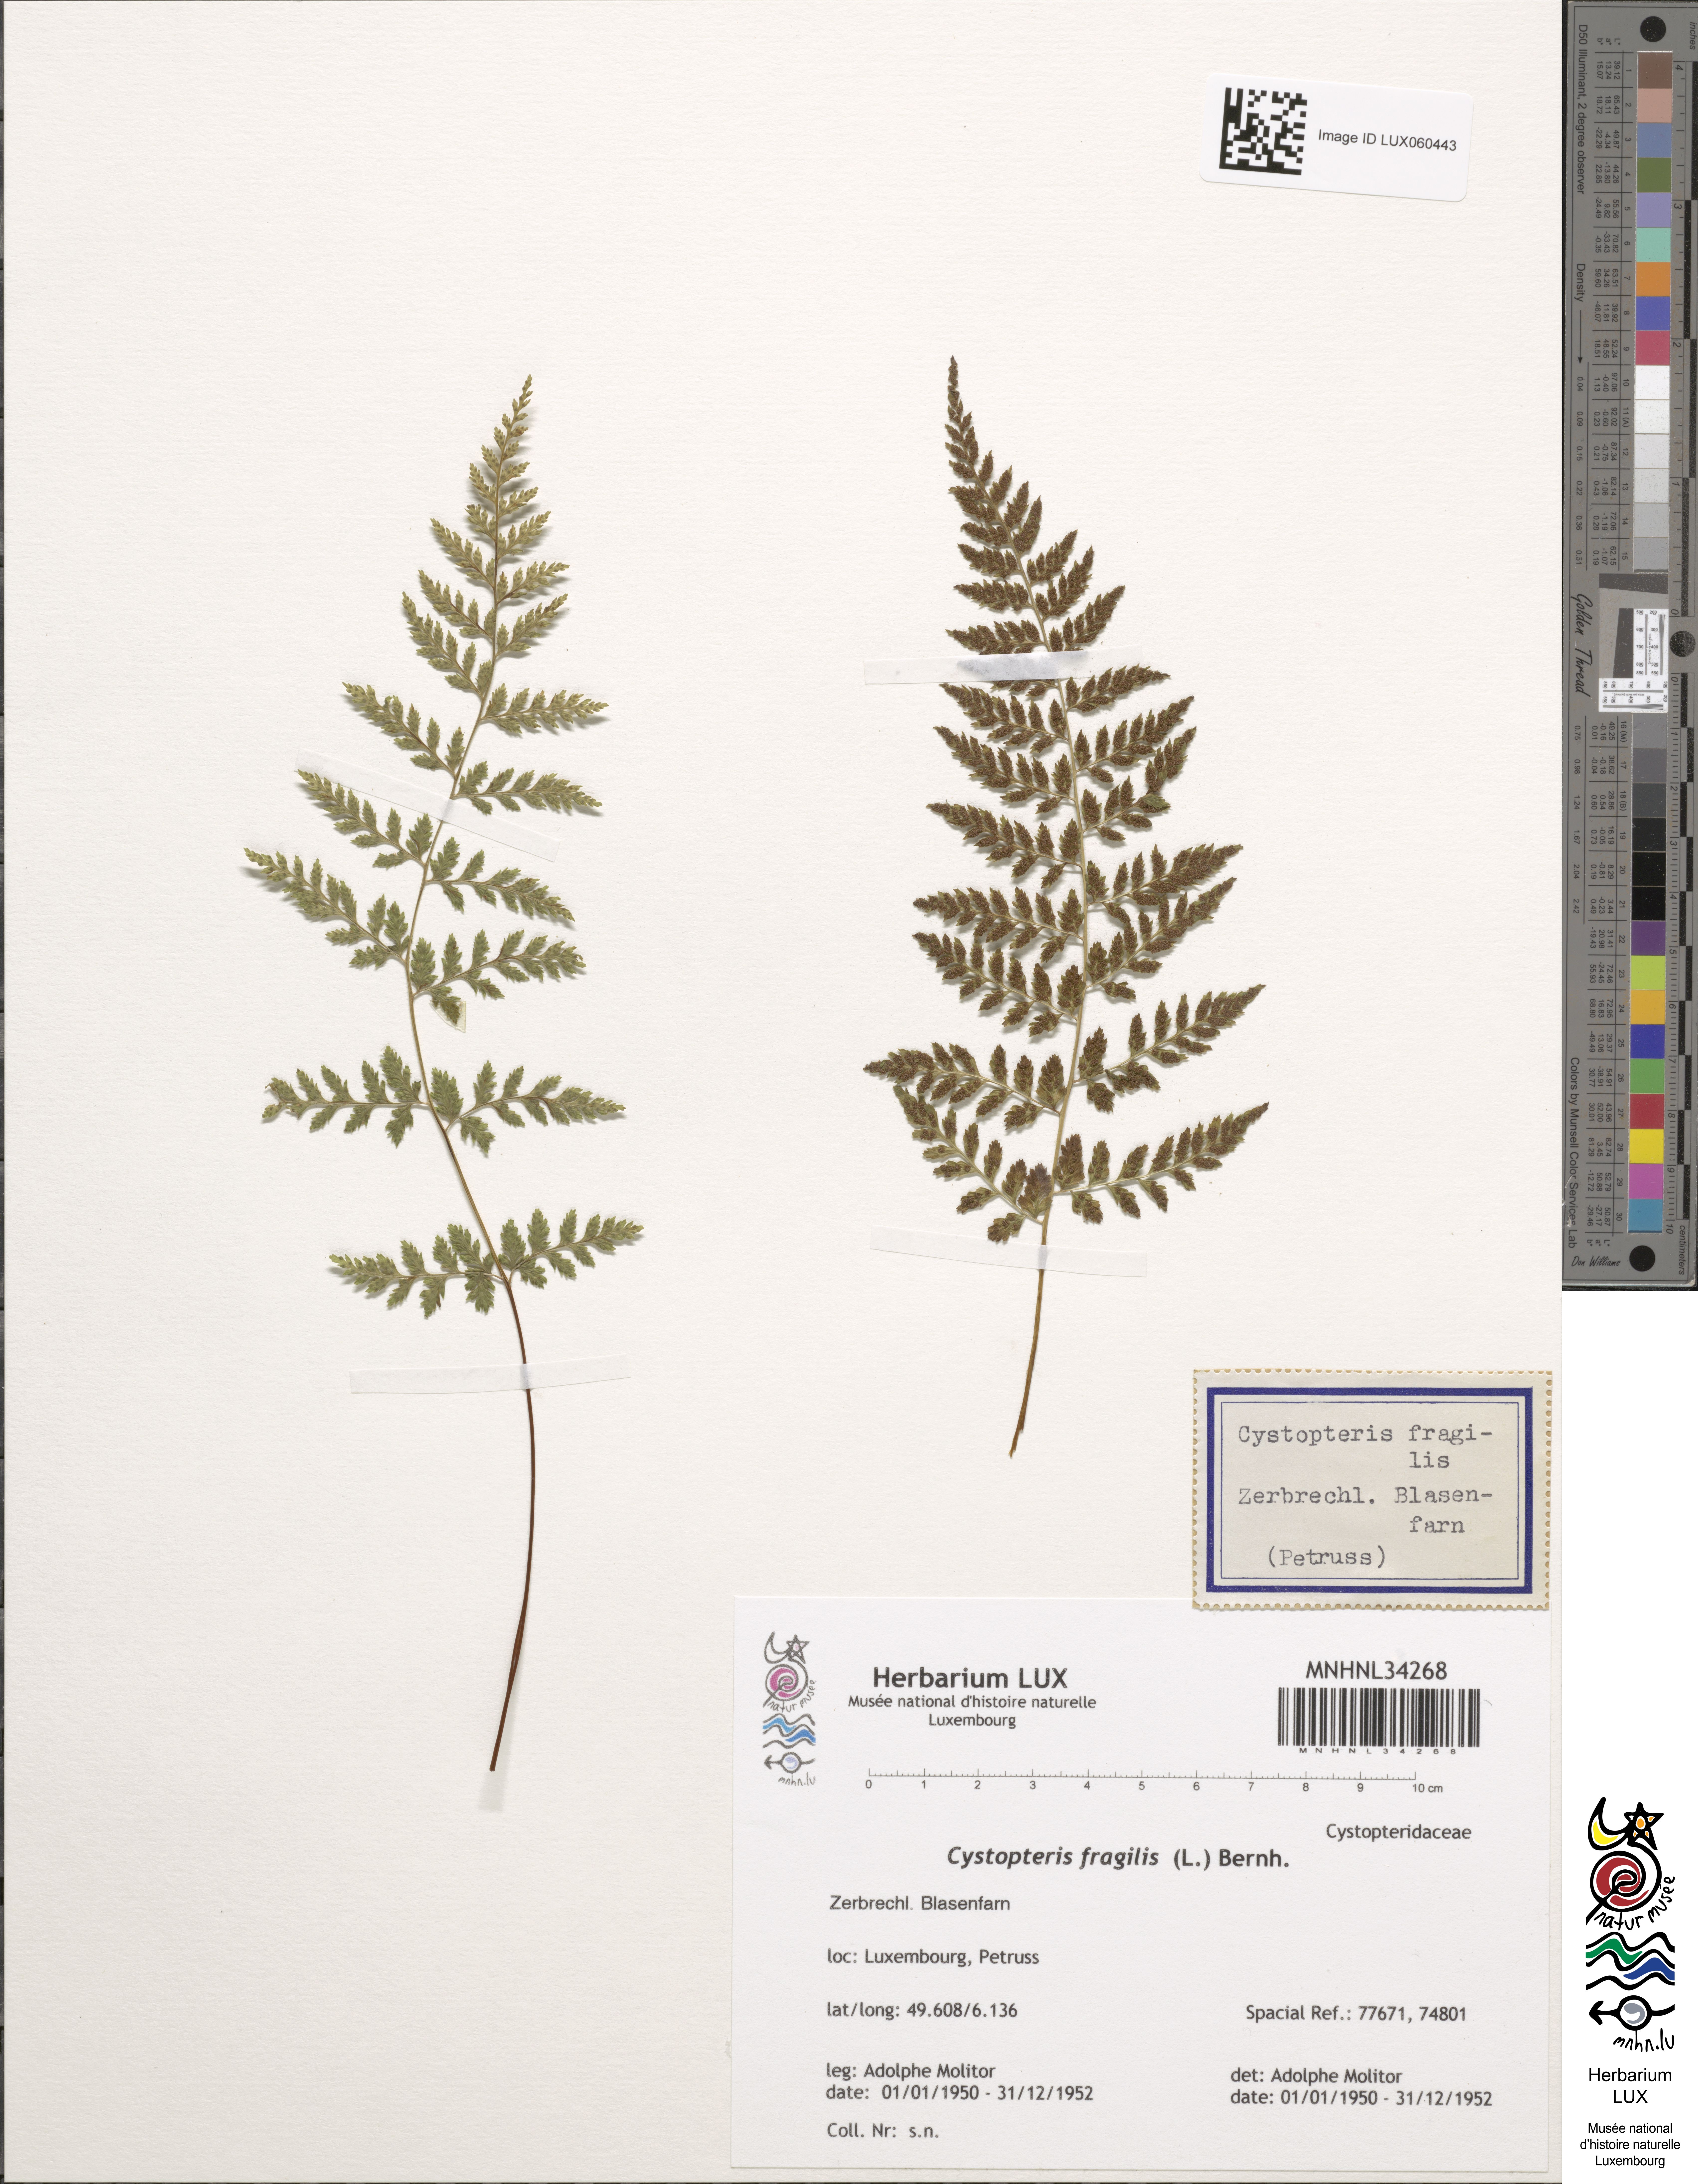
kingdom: Plantae
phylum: Tracheophyta
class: Polypodiopsida
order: Polypodiales
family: Cystopteridaceae
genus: Cystopteris
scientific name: Cystopteris fragilis
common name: Brittle bladder fern
